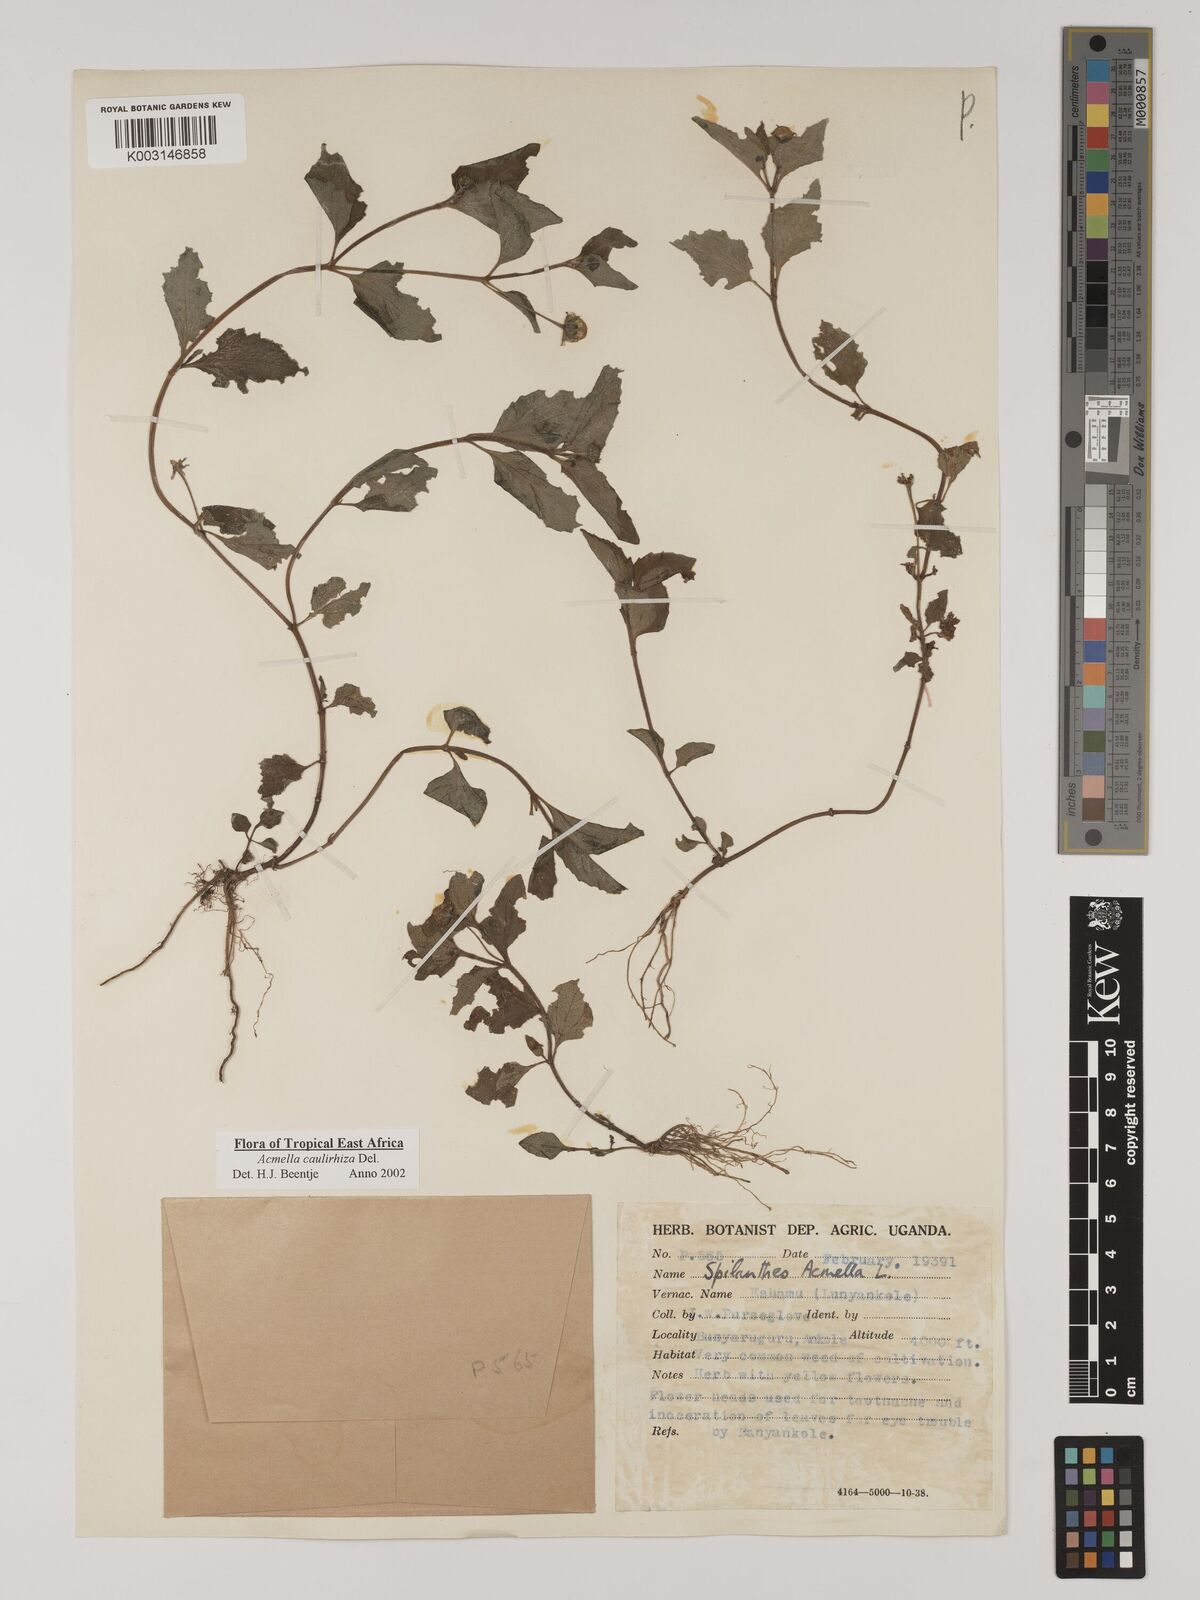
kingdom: Plantae
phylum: Tracheophyta
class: Magnoliopsida
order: Asterales
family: Asteraceae
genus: Acmella
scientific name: Acmella caulirhiza
